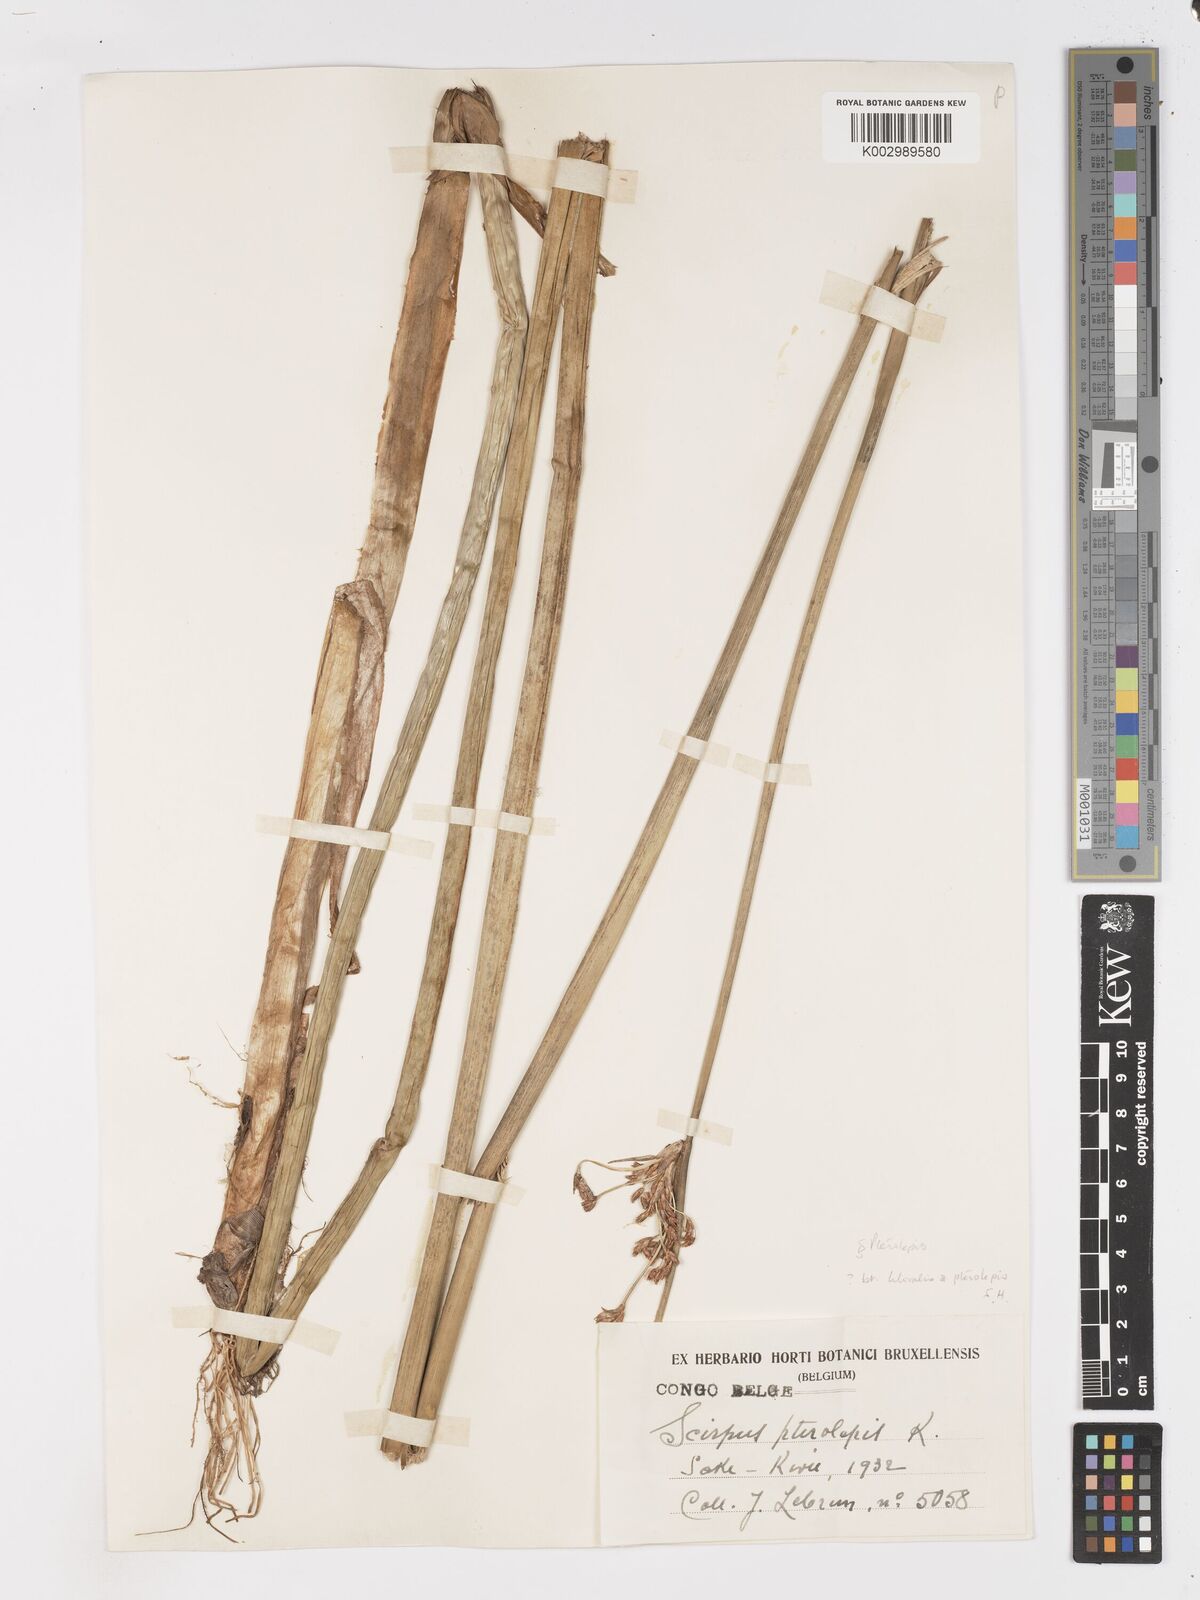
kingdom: Plantae
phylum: Tracheophyta
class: Liliopsida
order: Poales
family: Cyperaceae
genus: Schoenoplectus
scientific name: Schoenoplectus litoralis
